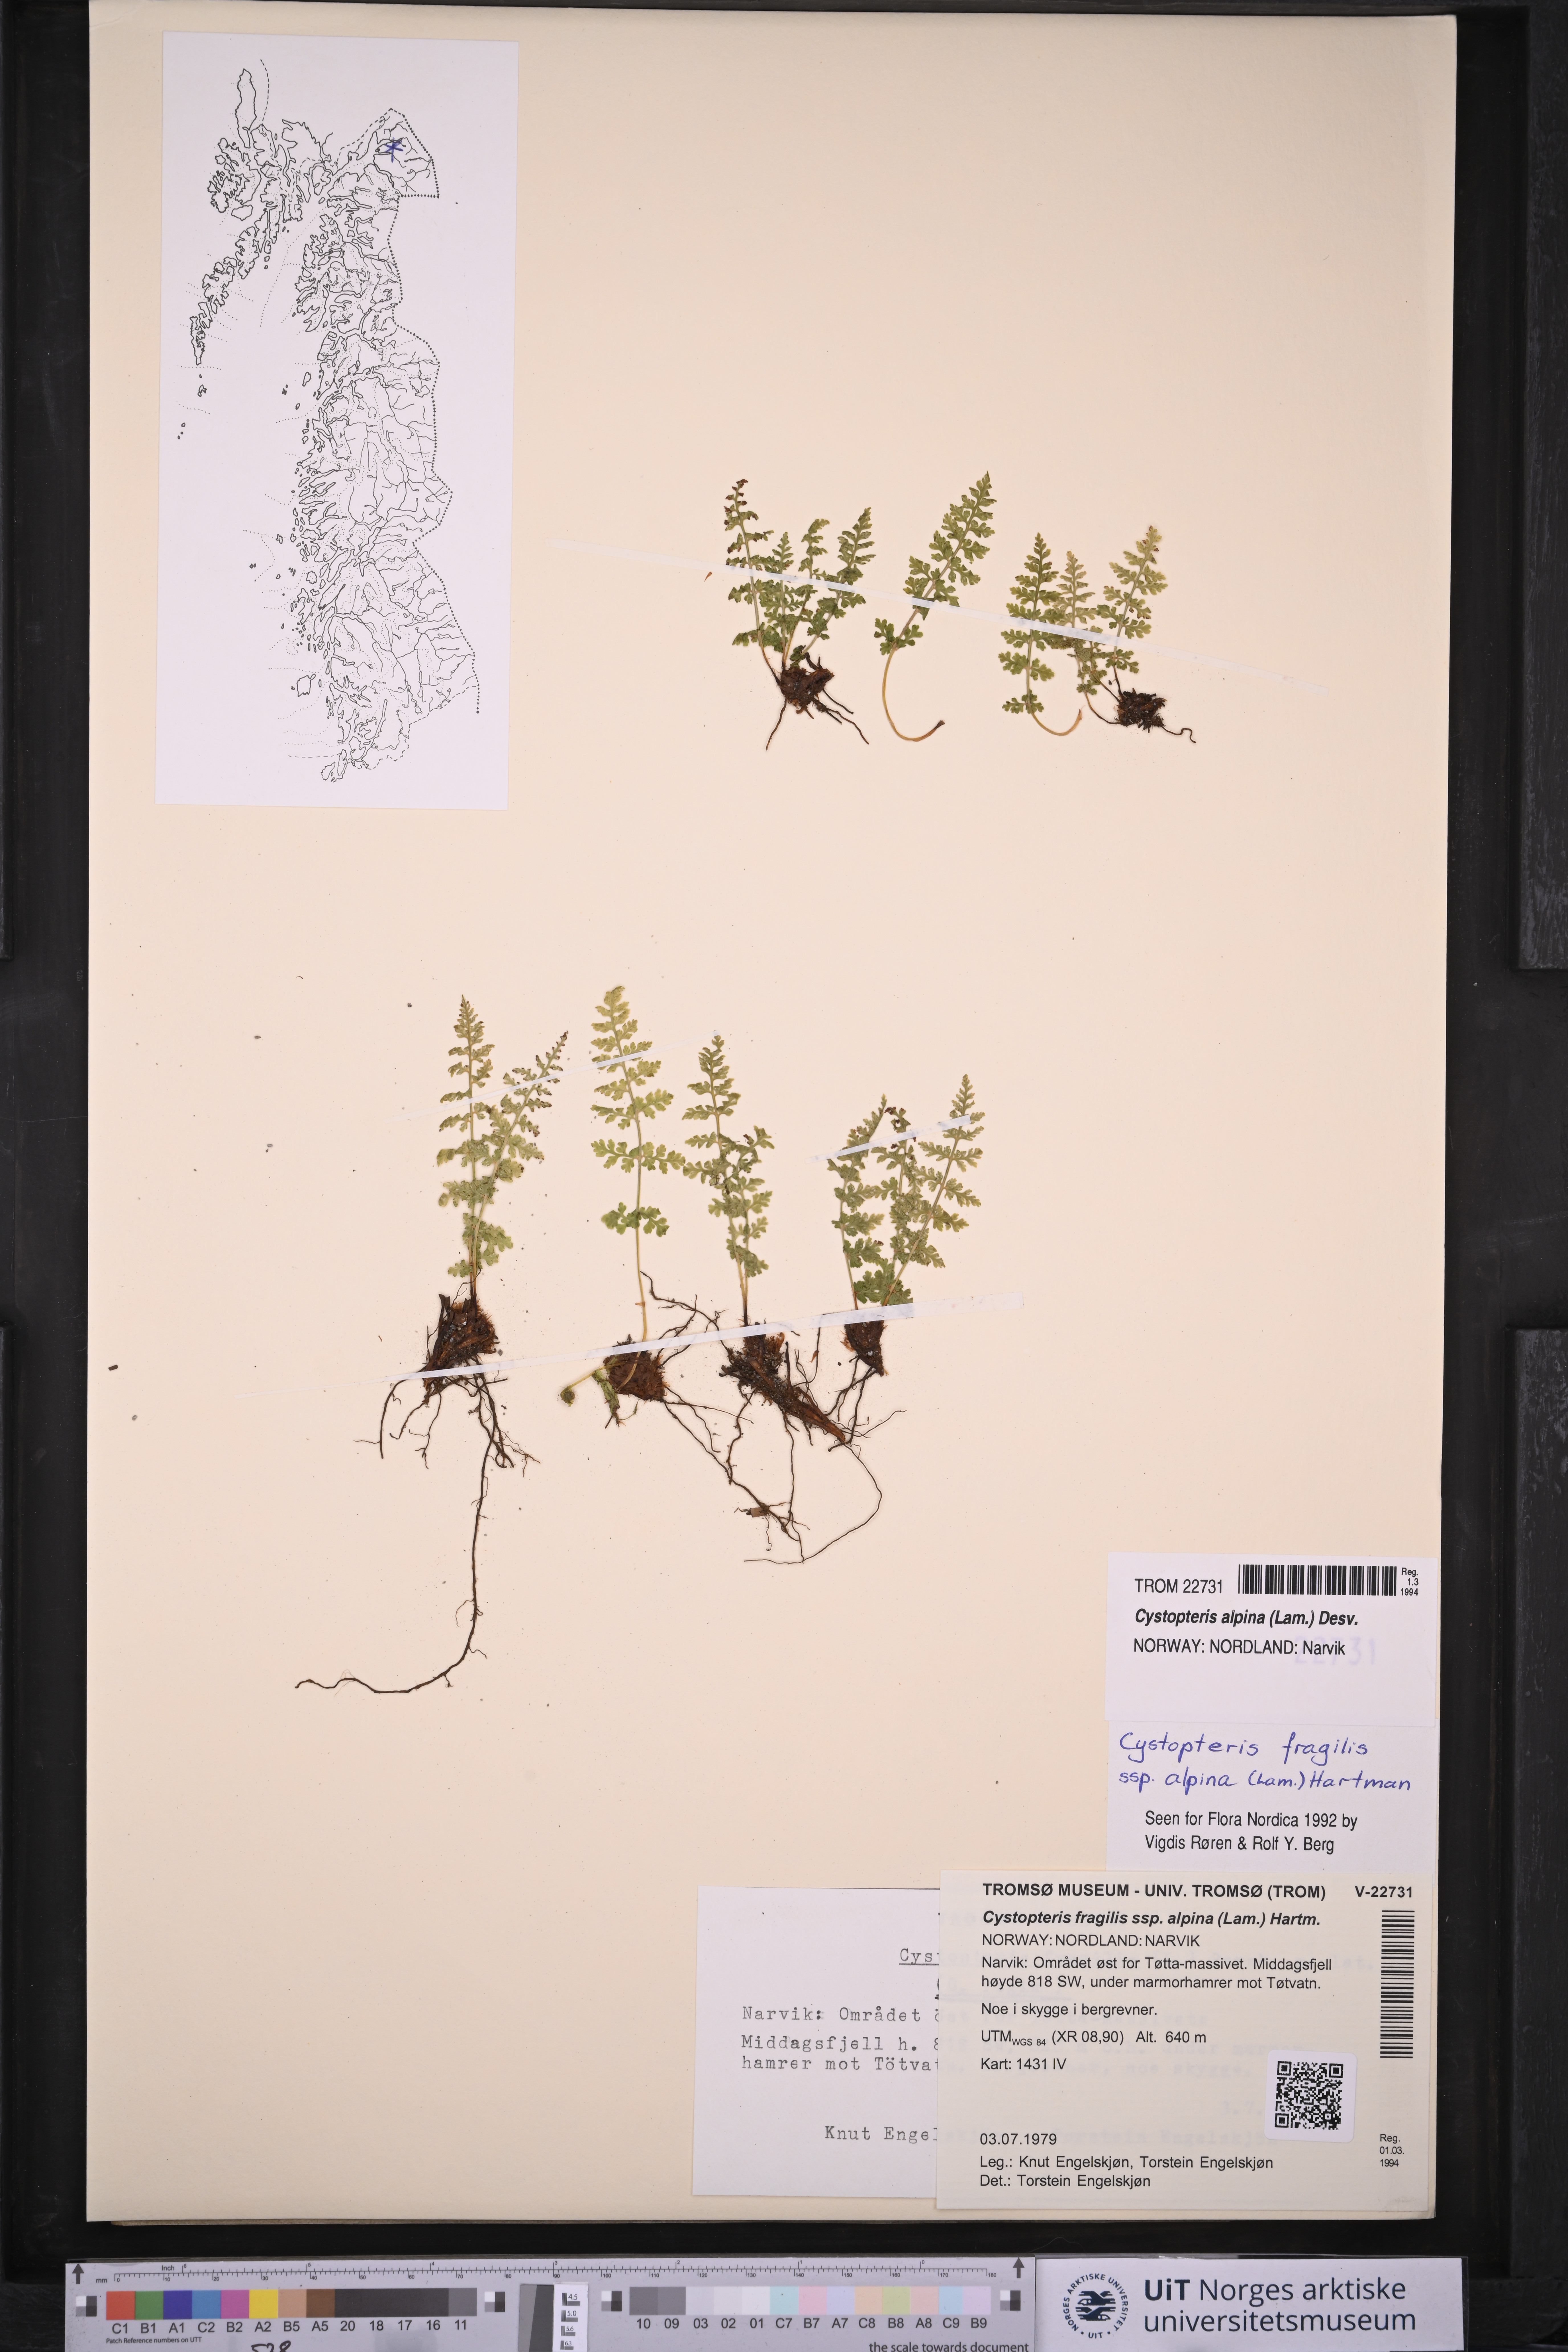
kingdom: Plantae
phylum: Tracheophyta
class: Polypodiopsida
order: Polypodiales
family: Cystopteridaceae
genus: Cystopteris
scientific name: Cystopteris alpina
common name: Alpine bladder-fern
